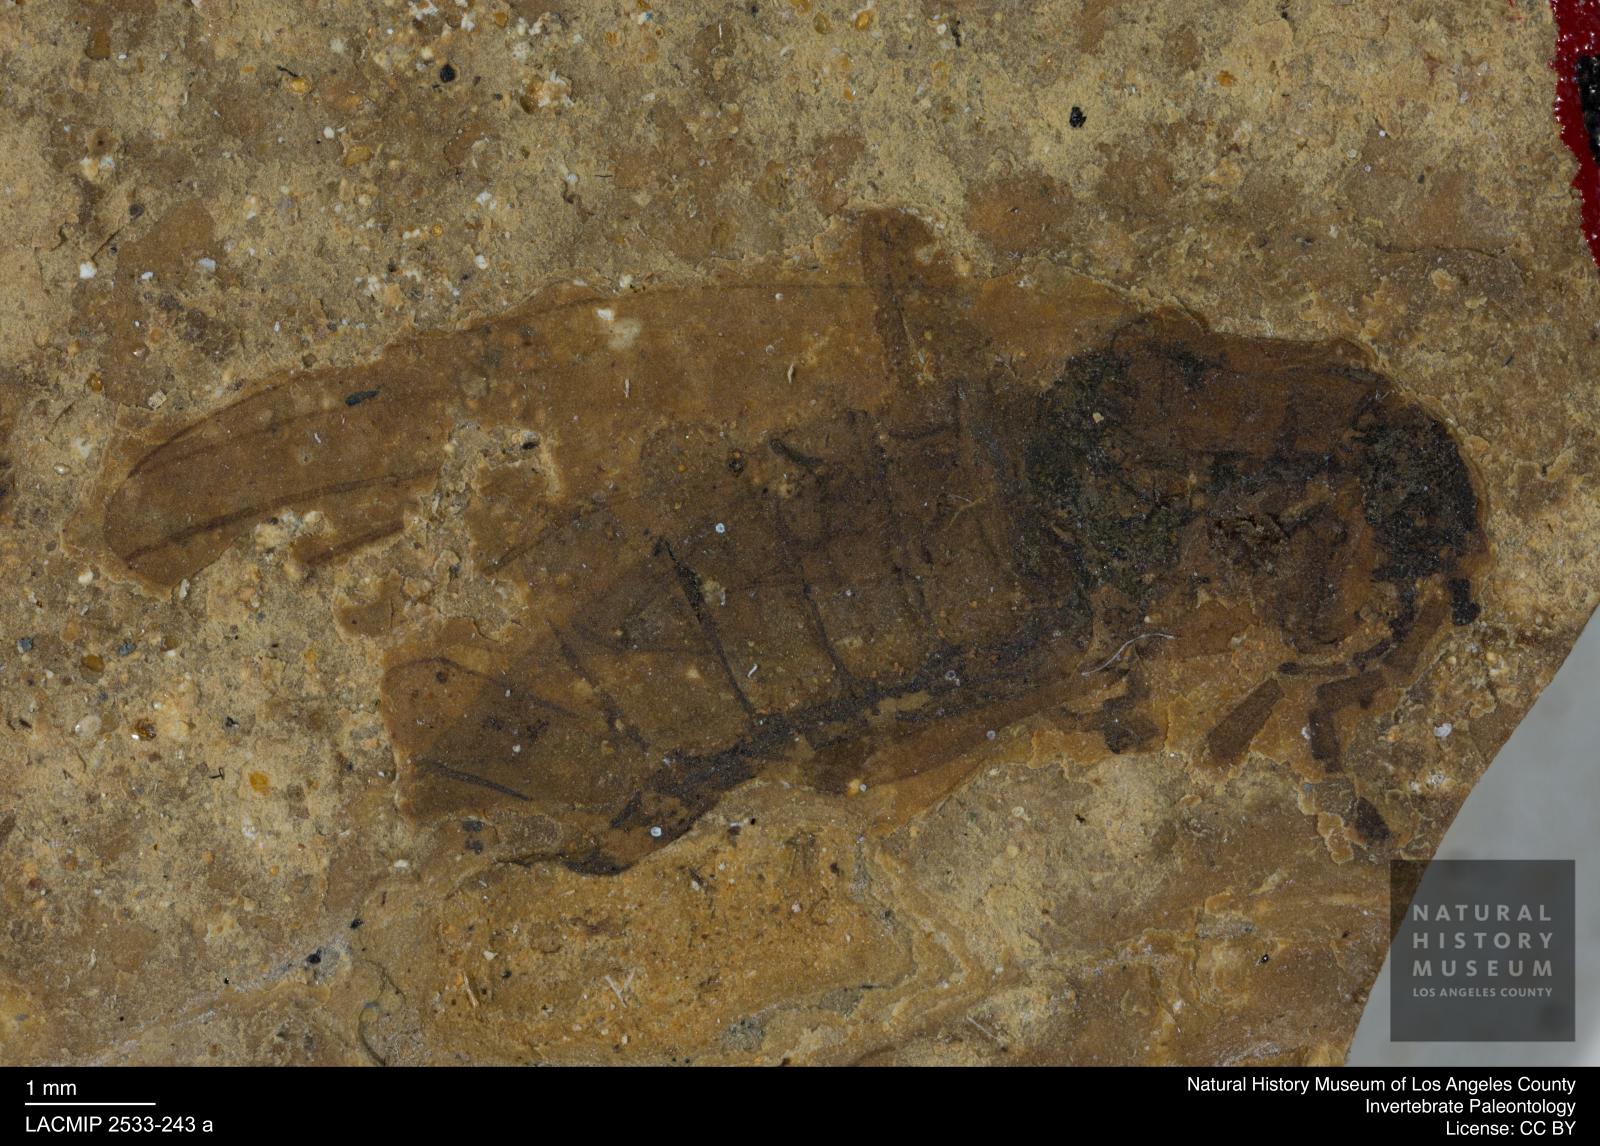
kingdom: Animalia
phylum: Arthropoda
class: Insecta
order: Diptera
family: Bibionidae
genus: Bibio
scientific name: Bibio rottensis
